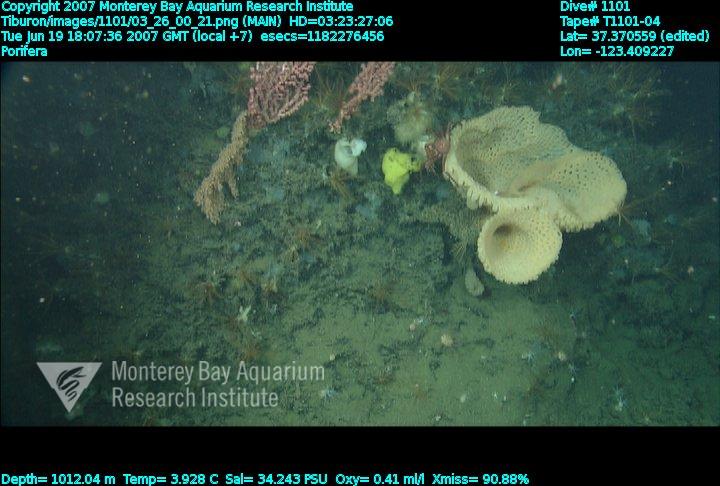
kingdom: Animalia
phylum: Porifera
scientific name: Porifera
